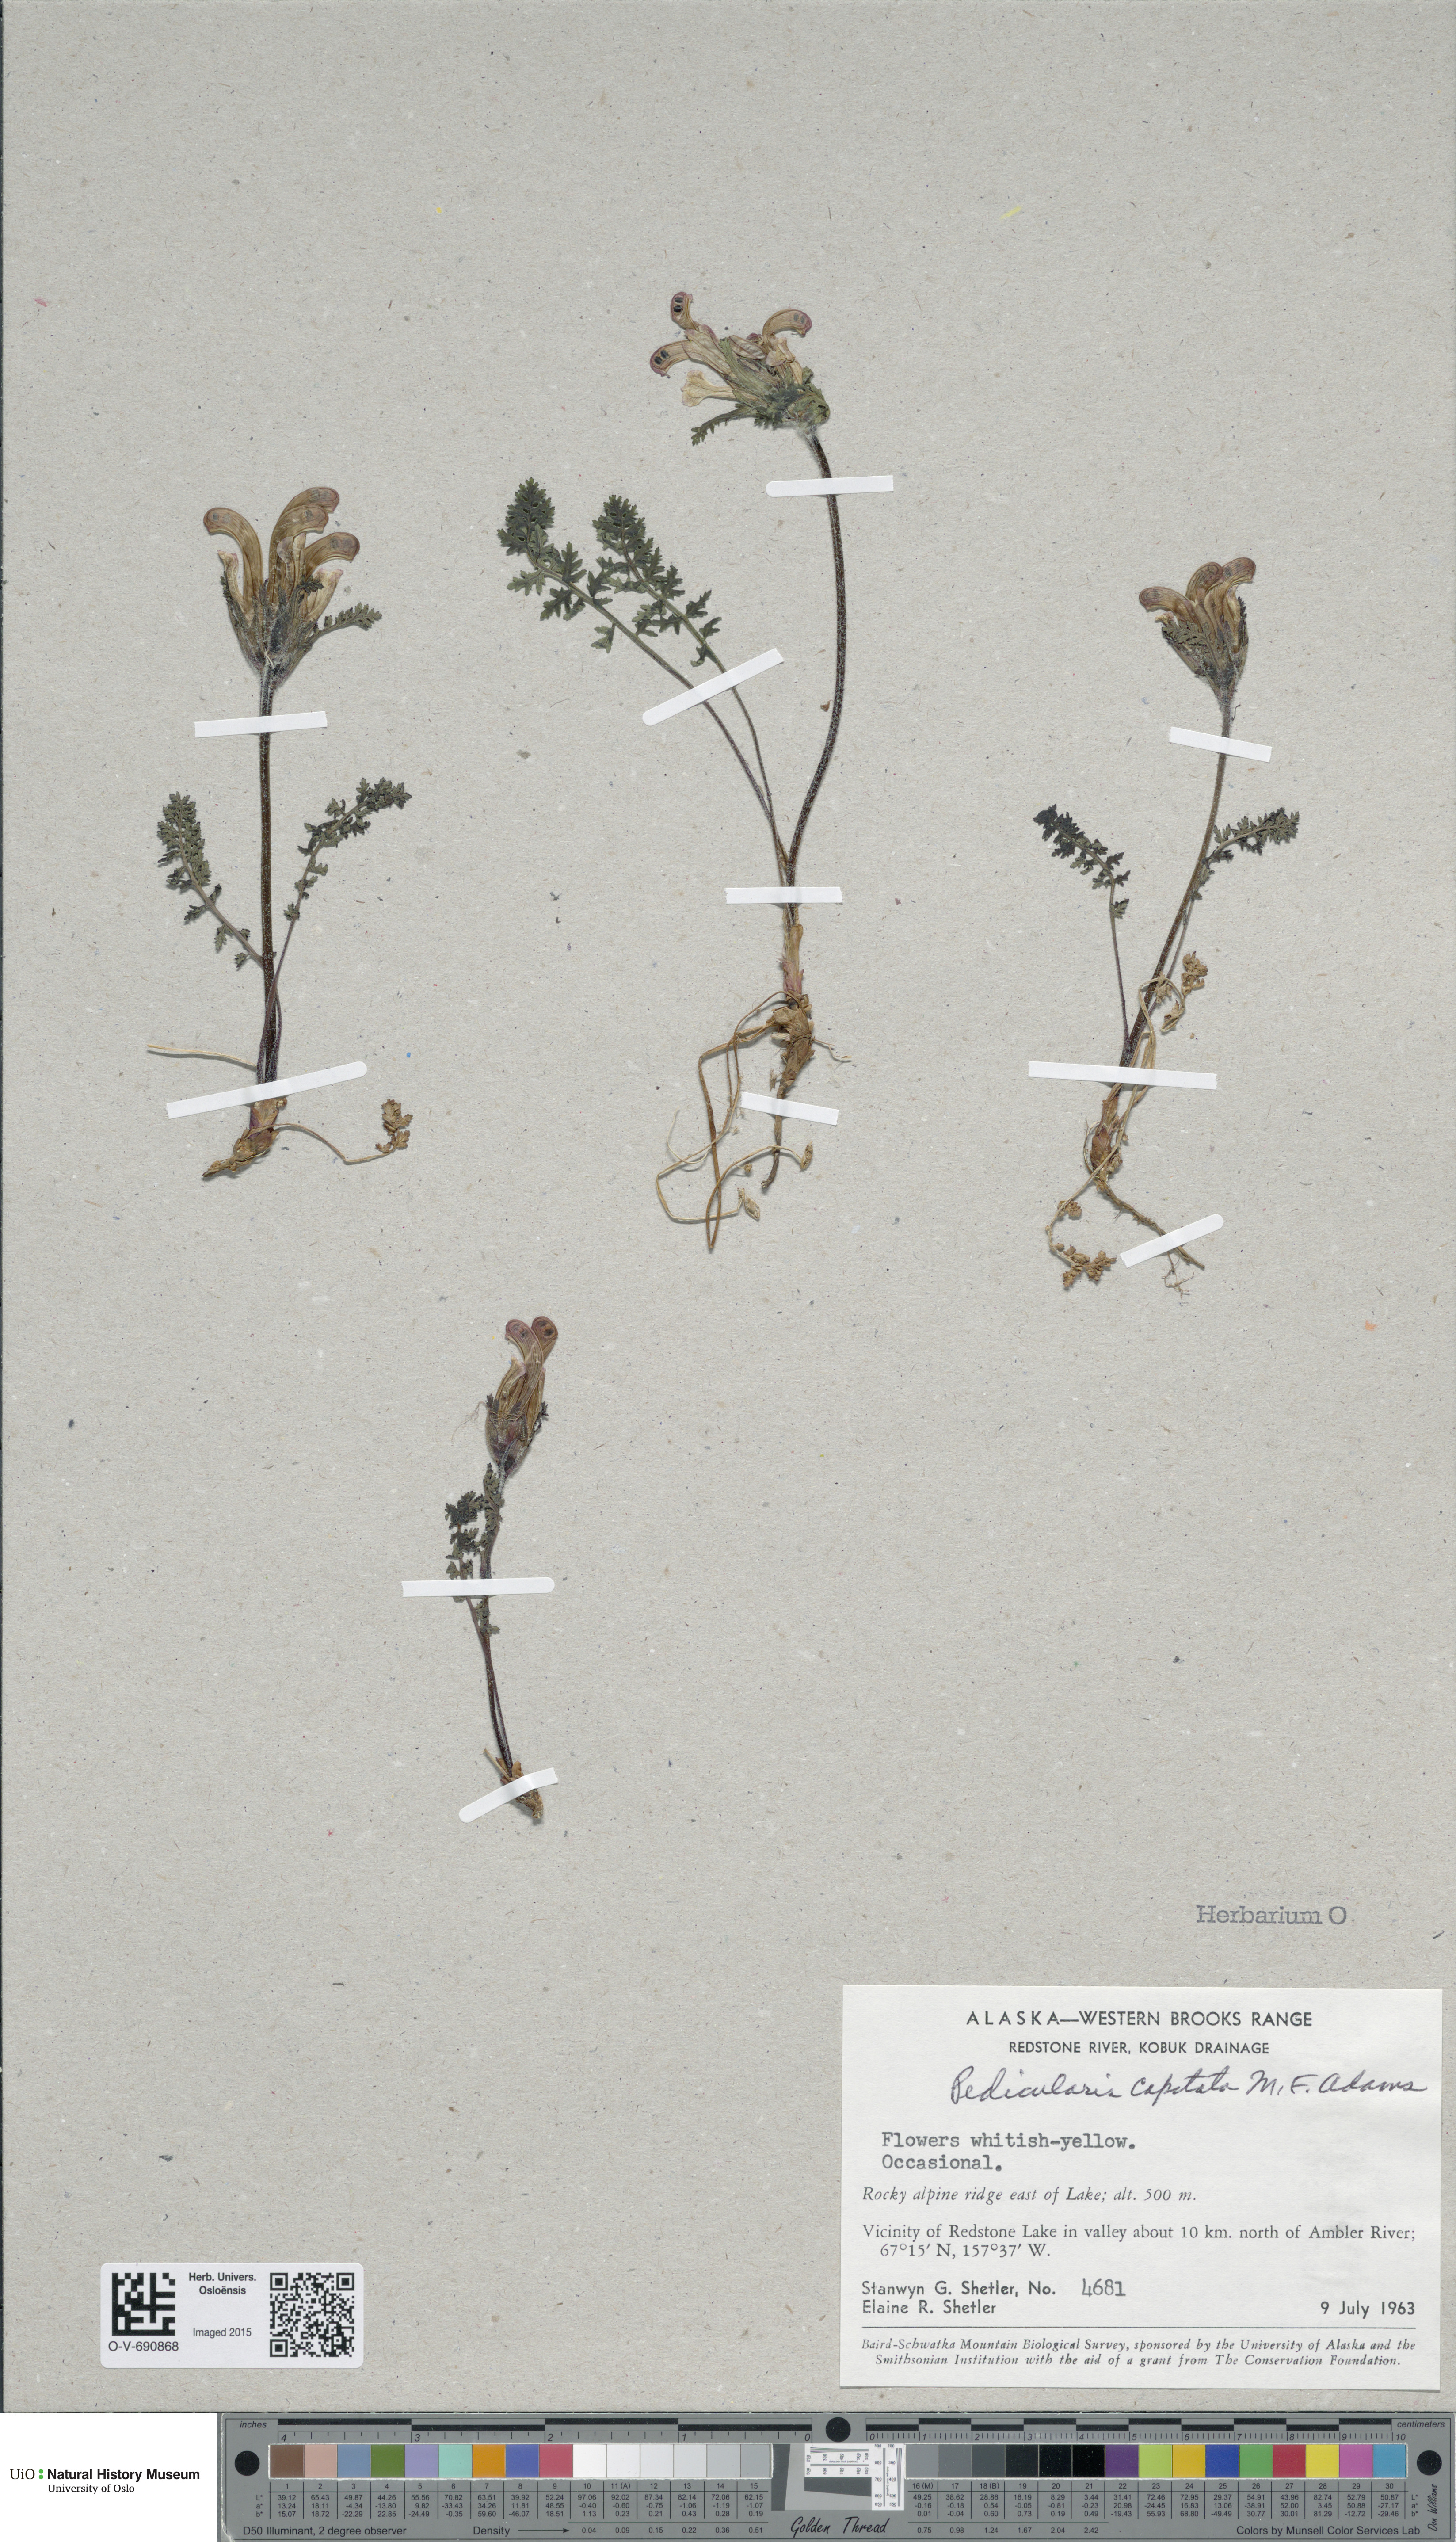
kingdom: Plantae
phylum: Tracheophyta
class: Magnoliopsida
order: Lamiales
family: Orobanchaceae
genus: Pedicularis
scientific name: Pedicularis capitata
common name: Capitate lousewort
